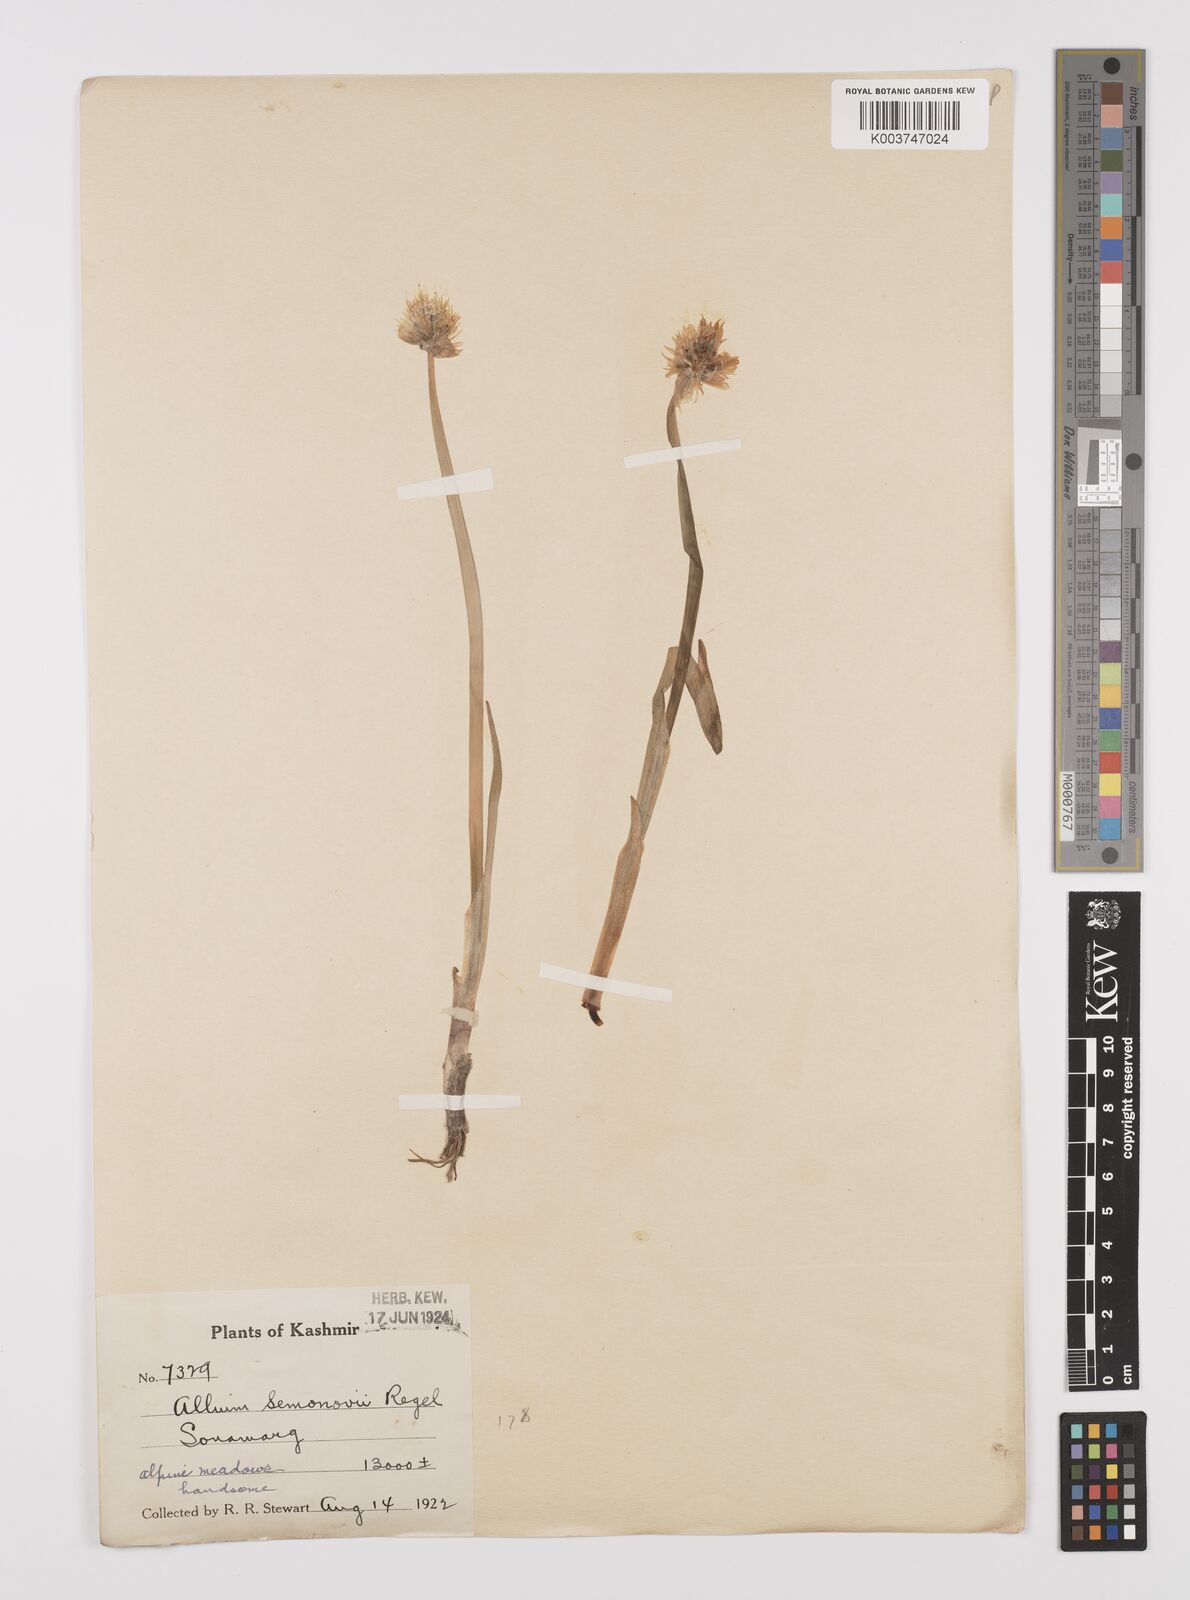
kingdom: Plantae
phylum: Tracheophyta
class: Liliopsida
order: Asparagales
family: Amaryllidaceae
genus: Allium
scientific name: Allium semenovii
